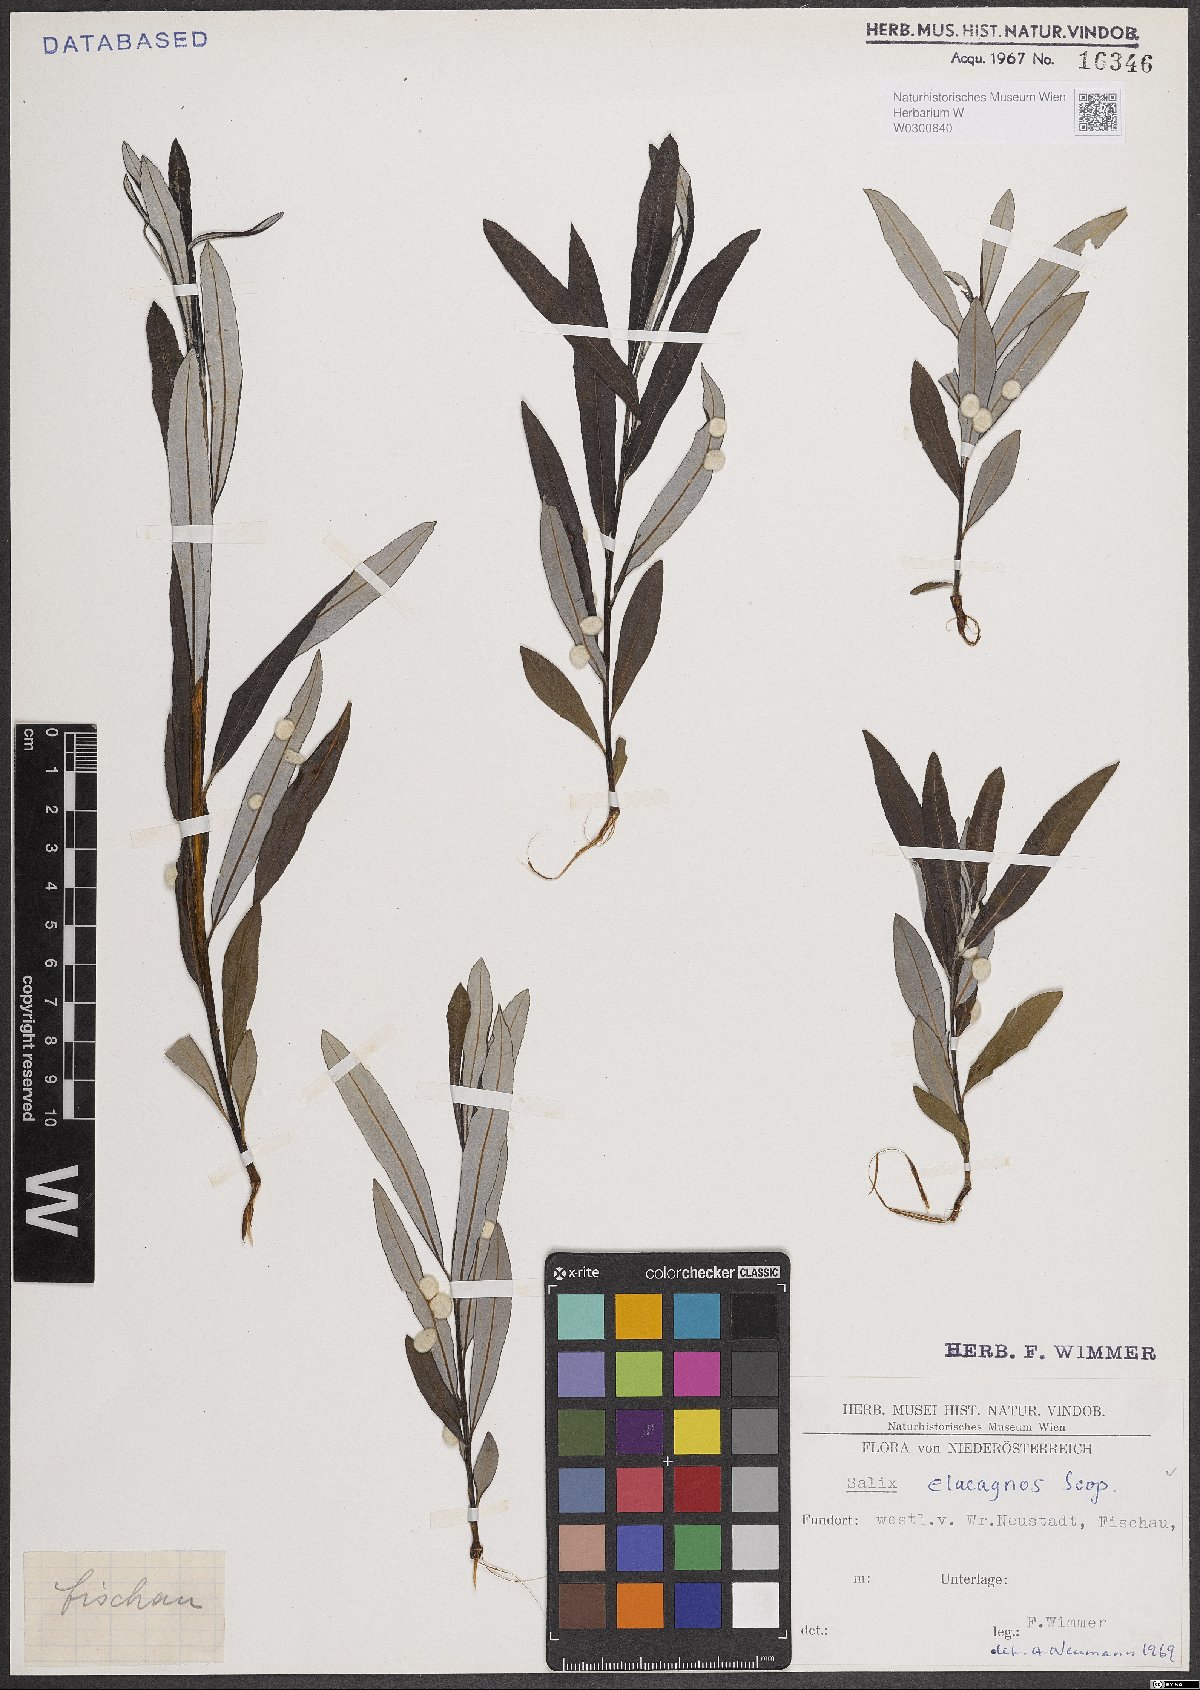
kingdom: Plantae
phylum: Tracheophyta
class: Magnoliopsida
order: Malpighiales
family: Salicaceae
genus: Salix
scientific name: Salix eleagnos
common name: Elaeagnus willow
